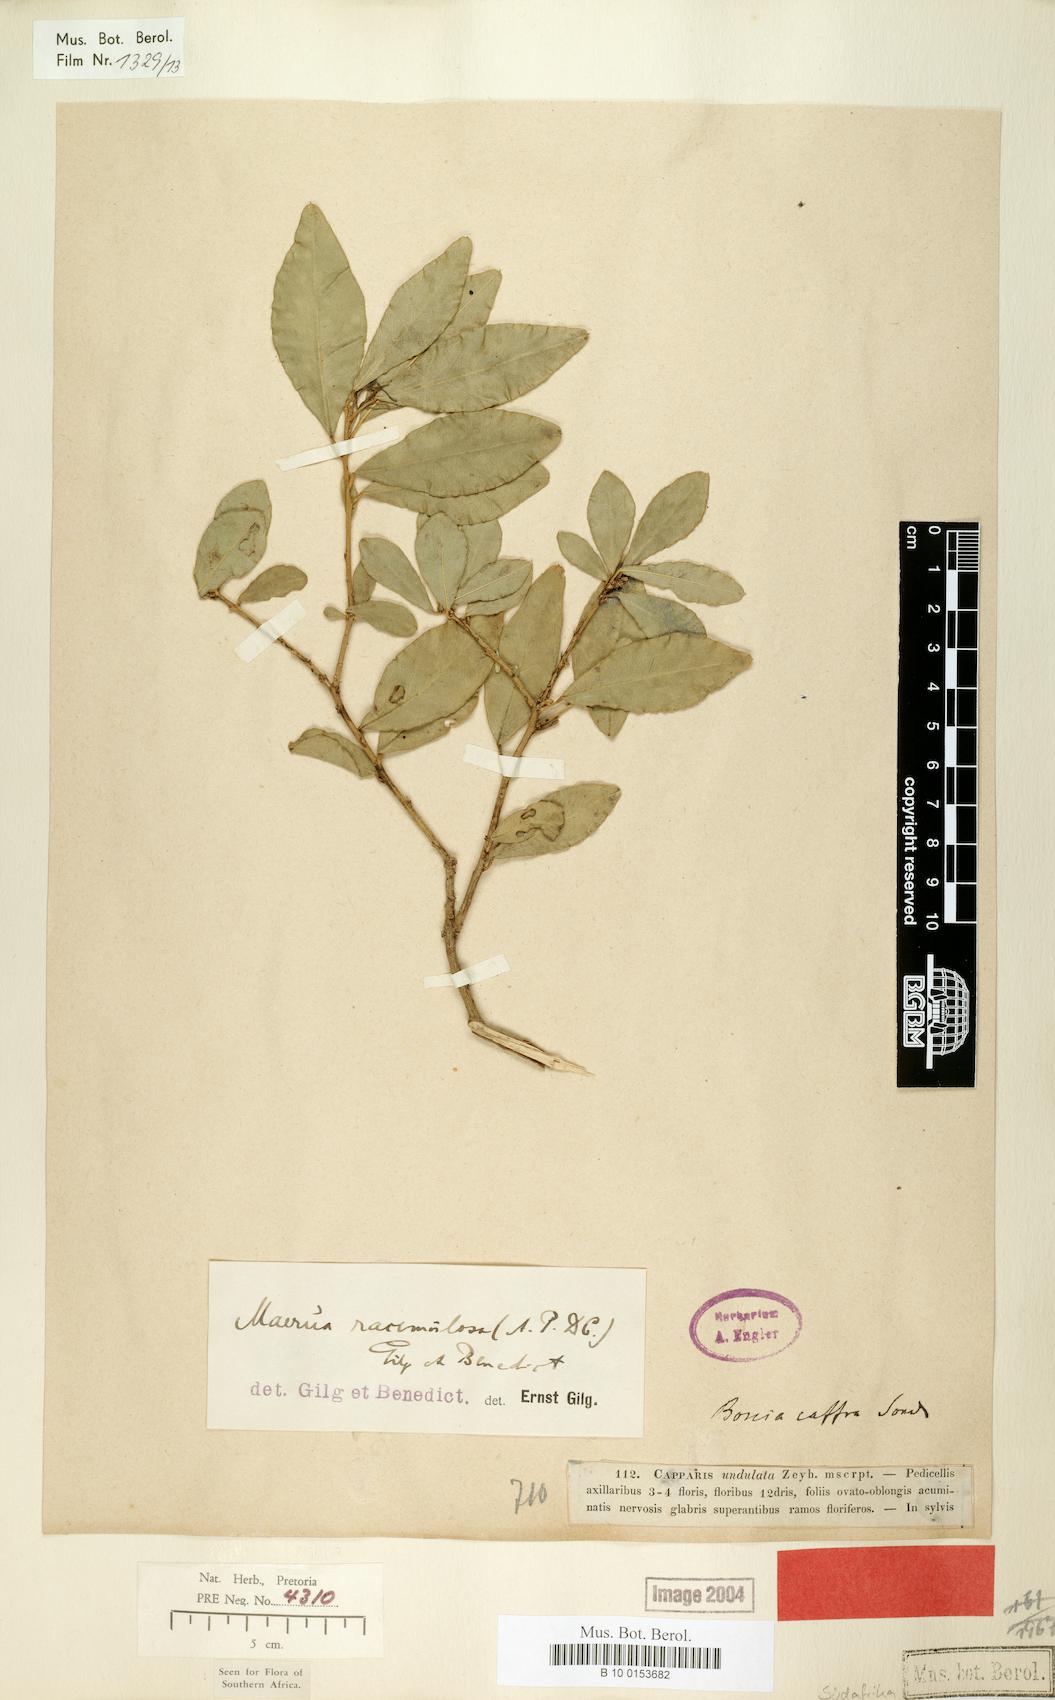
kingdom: Plantae
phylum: Tracheophyta
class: Magnoliopsida
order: Brassicales
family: Capparaceae
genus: Maerua
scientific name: Maerua racemulosa
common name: Forest bush-cherry
